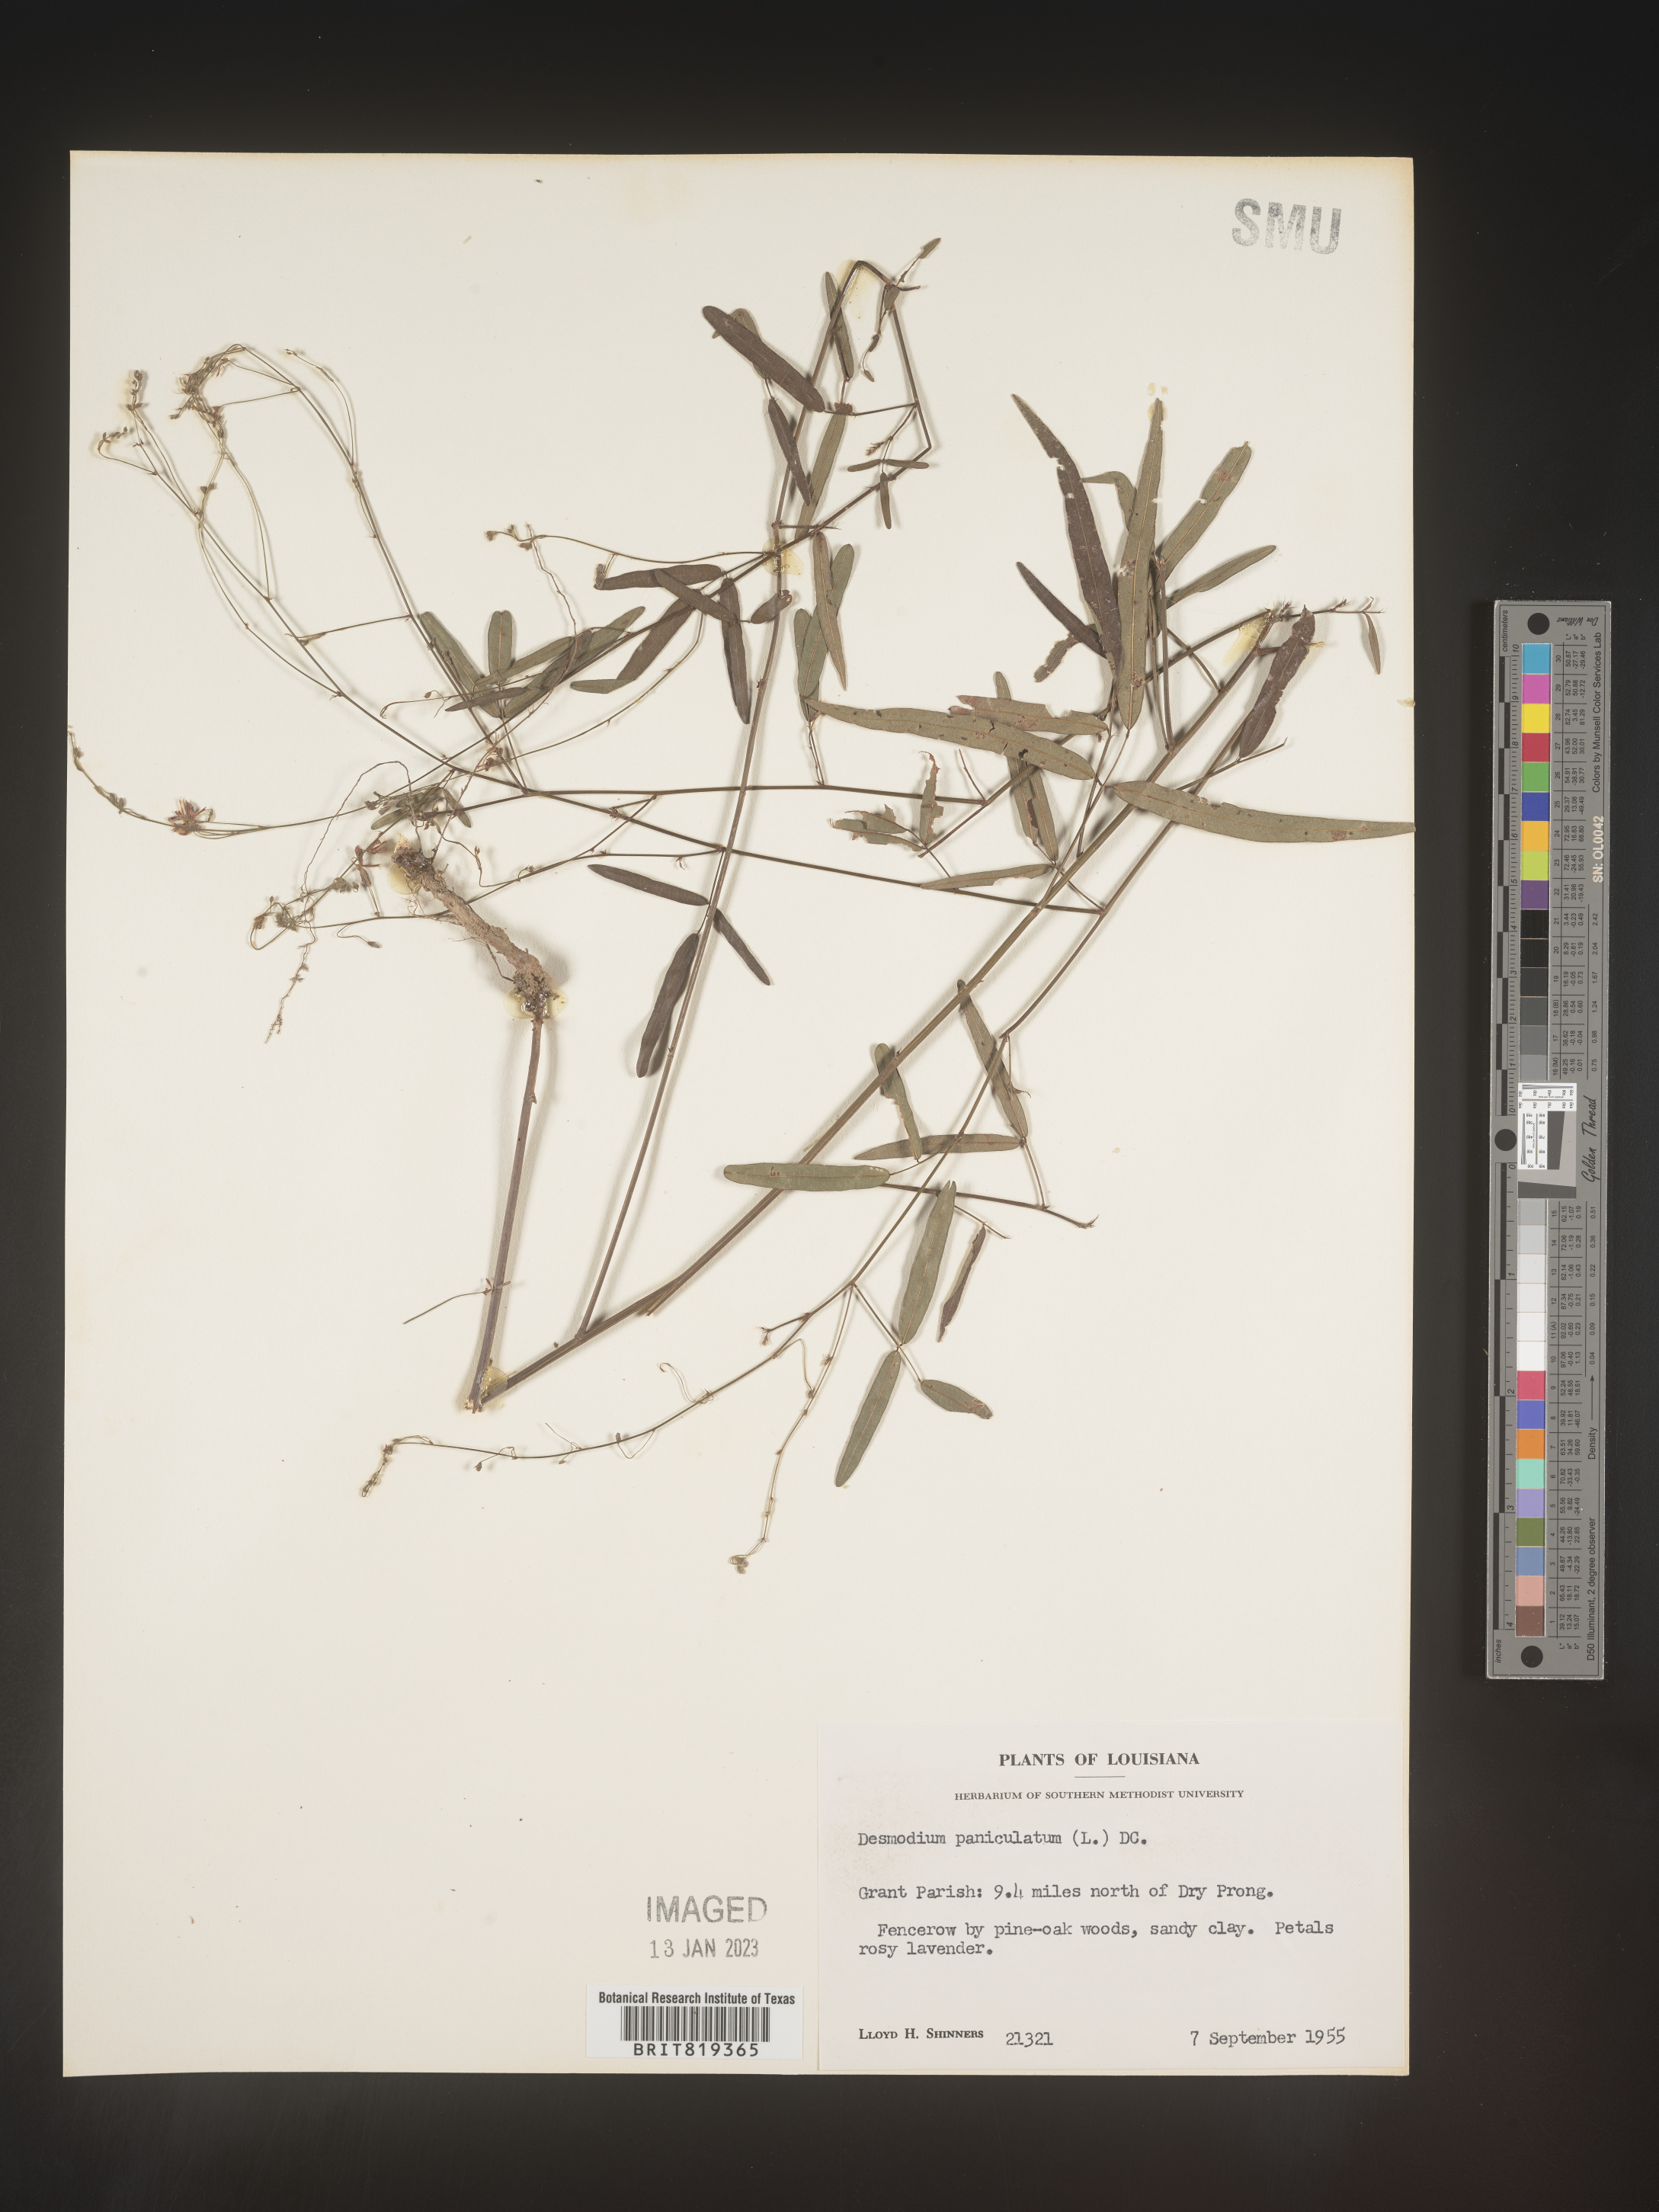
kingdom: Plantae
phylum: Tracheophyta
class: Magnoliopsida
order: Fabales
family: Fabaceae
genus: Desmodium
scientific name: Desmodium paniculatum
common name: Panicled tick-clover
